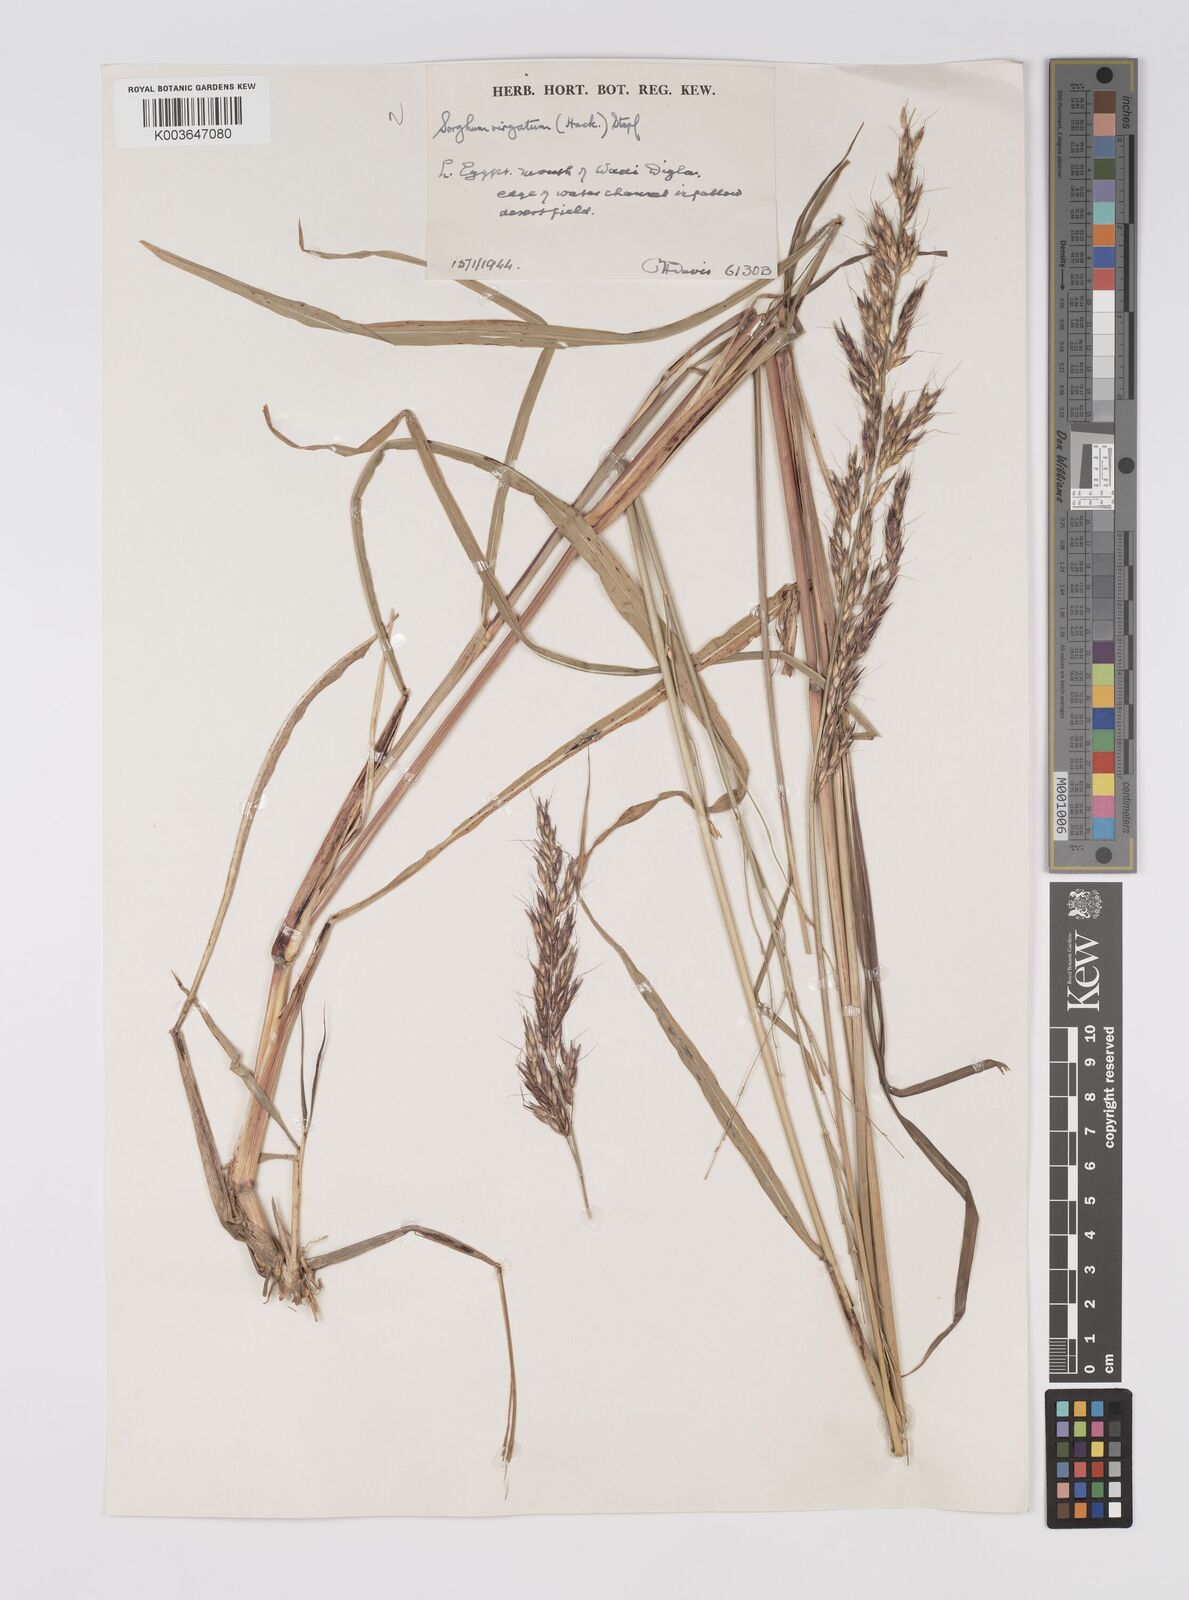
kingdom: Plantae
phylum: Tracheophyta
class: Liliopsida
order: Poales
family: Poaceae
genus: Sorghum
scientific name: Sorghum virgatum
